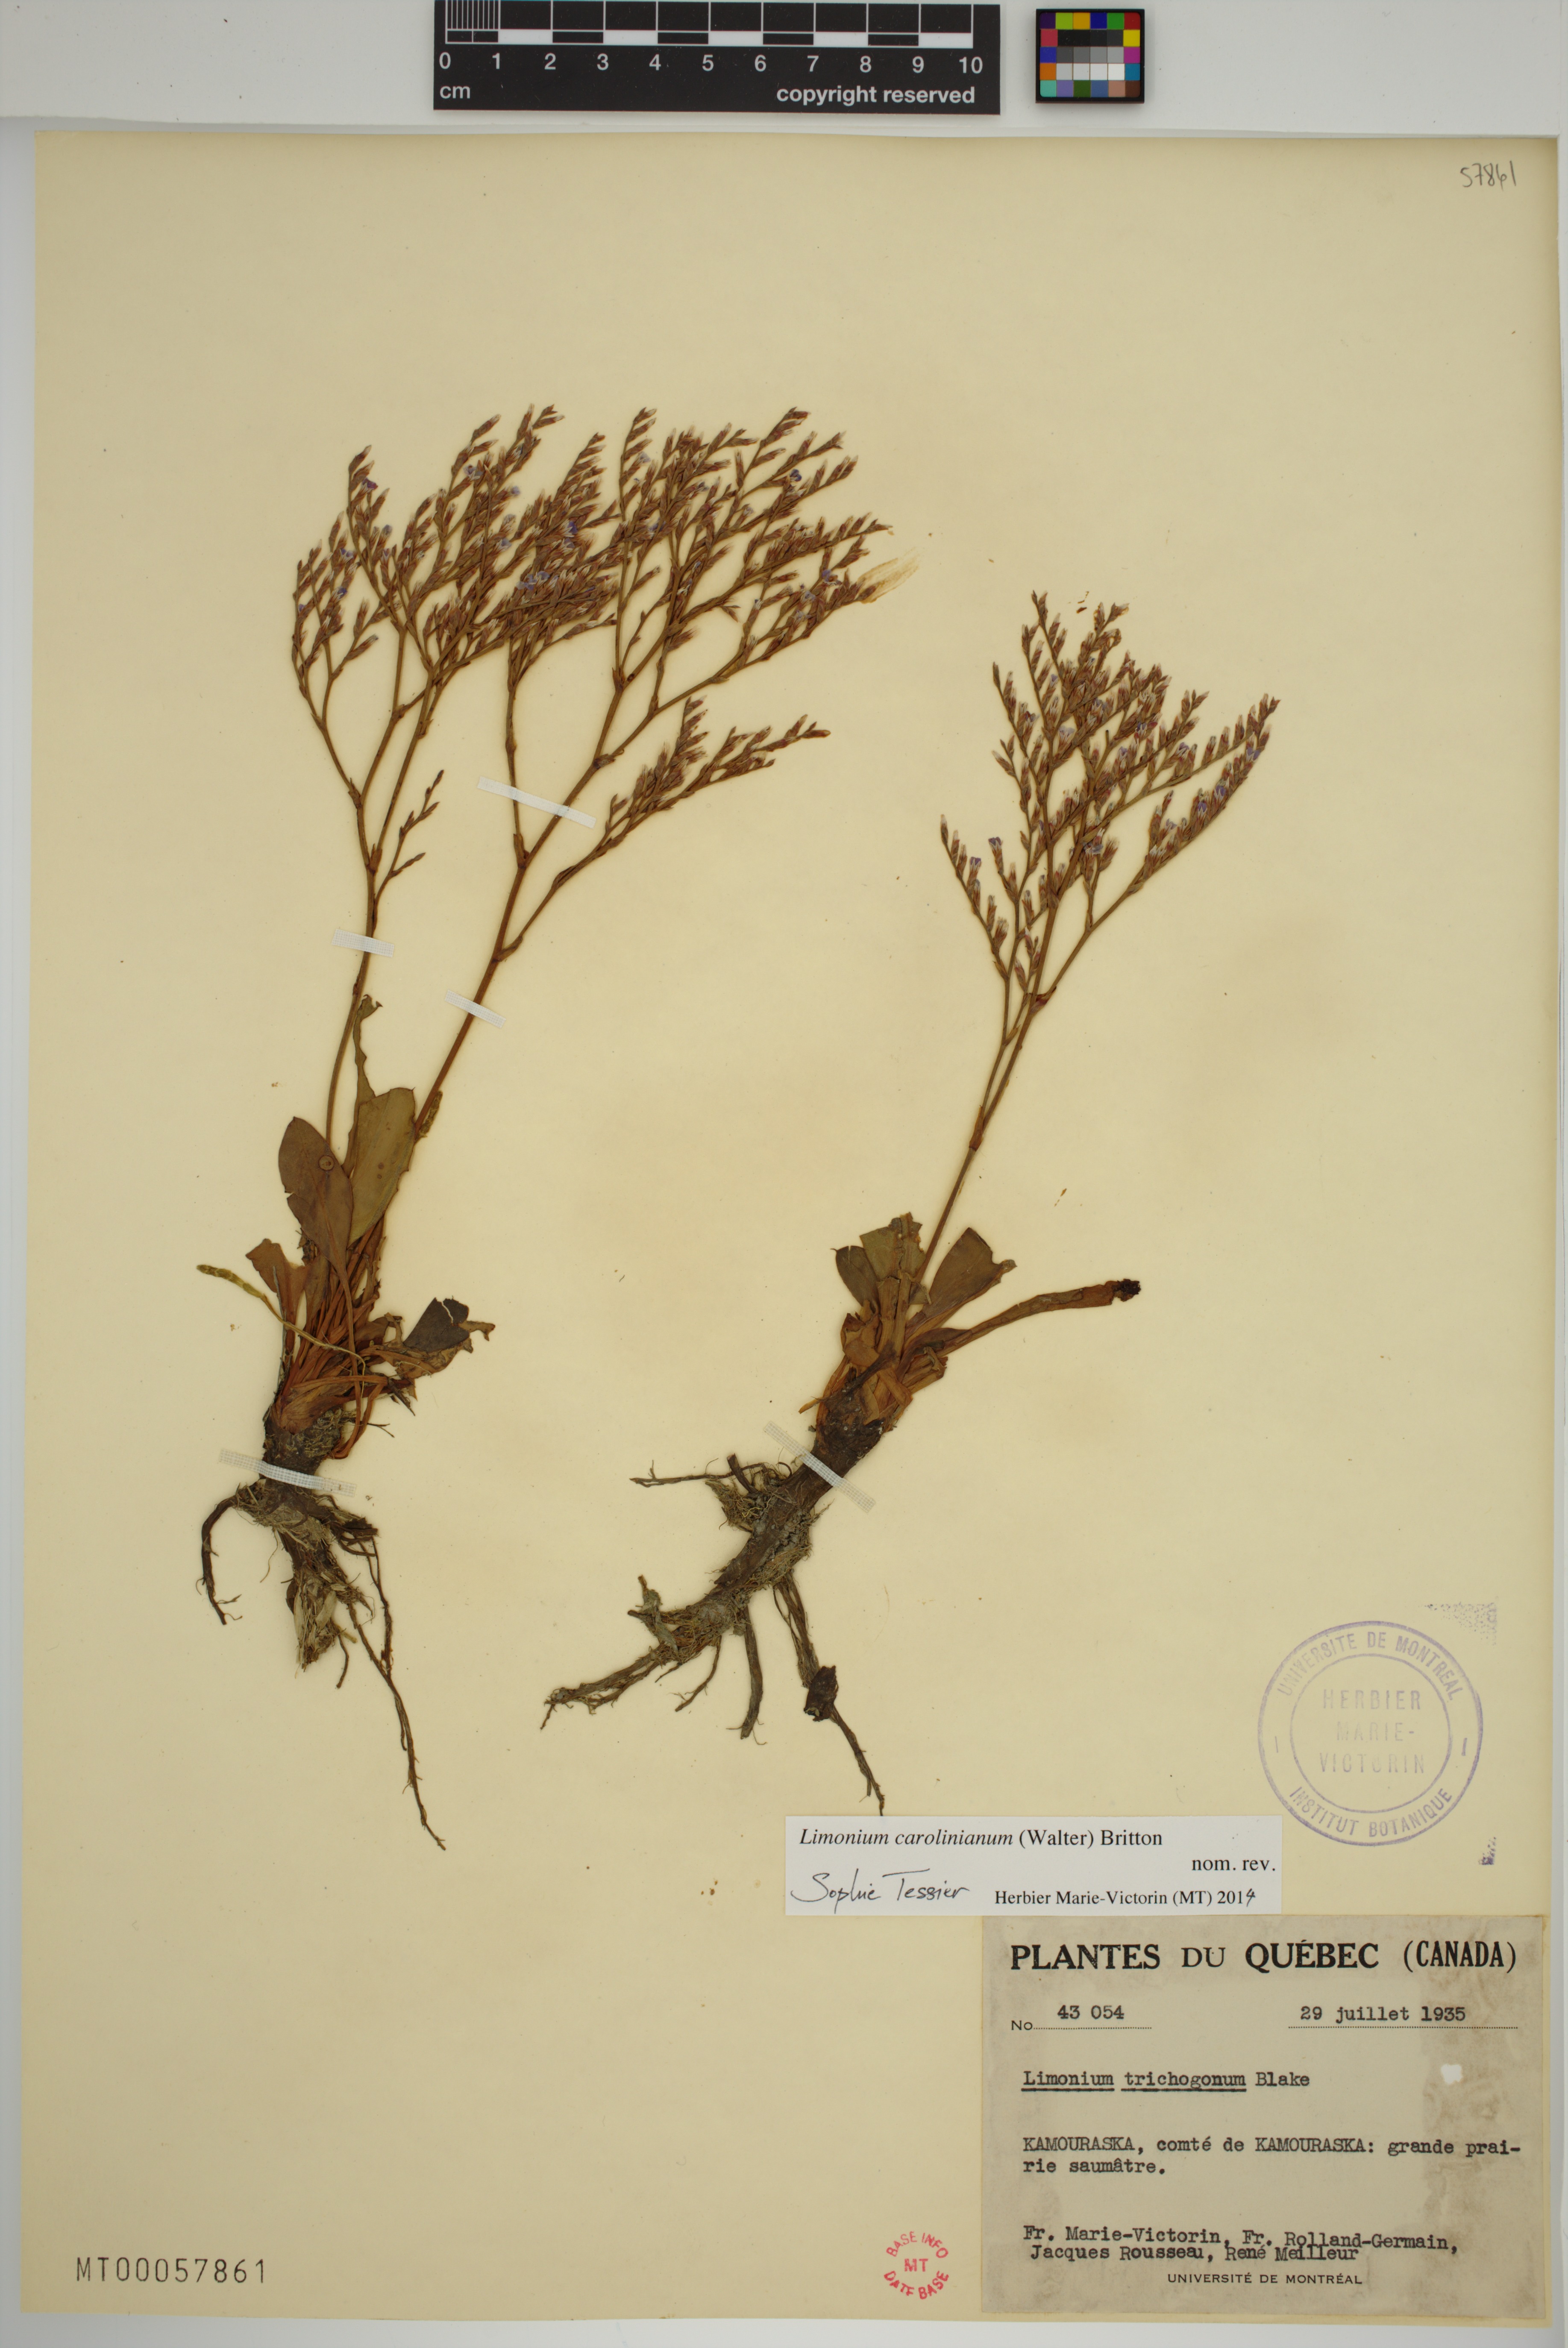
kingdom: Plantae
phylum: Tracheophyta
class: Magnoliopsida
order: Caryophyllales
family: Plumbaginaceae
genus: Limonium
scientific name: Limonium carolinianum
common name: Carolina sea lavender
